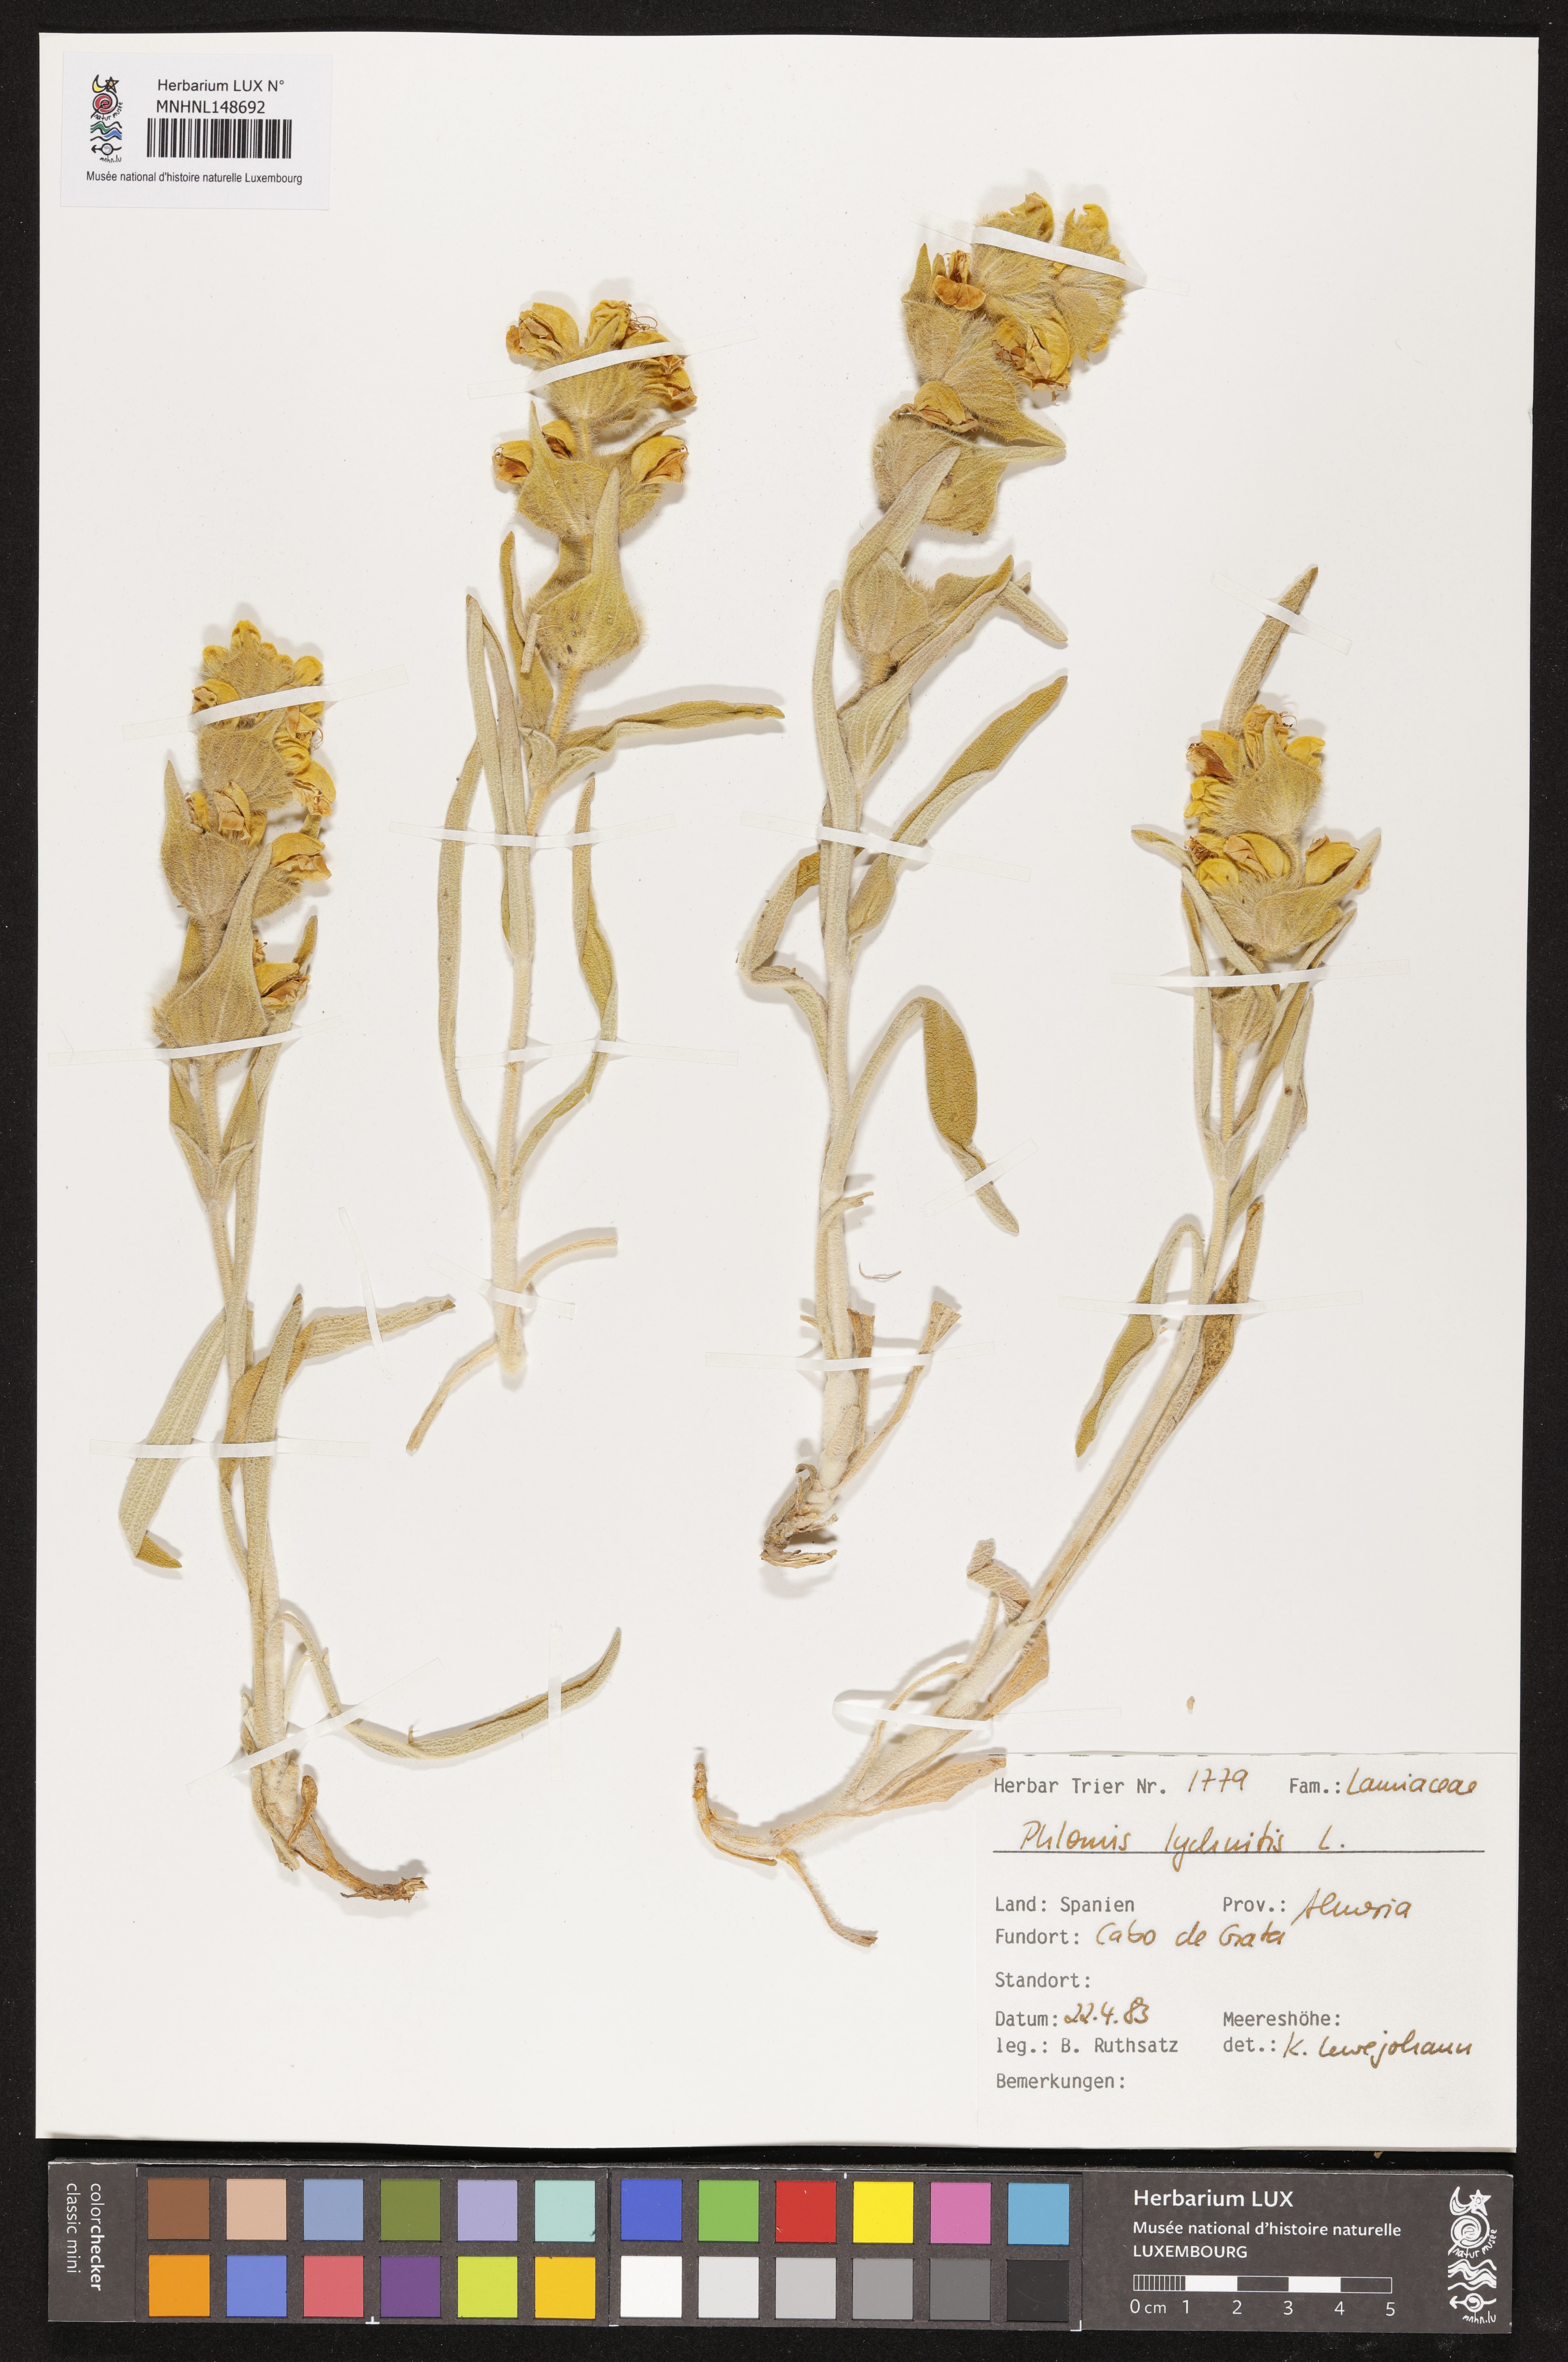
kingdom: Plantae
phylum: Tracheophyta
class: Magnoliopsida
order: Lamiales
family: Lamiaceae
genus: Phlomis
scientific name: Phlomis lychnitis
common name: Lampwickplant
